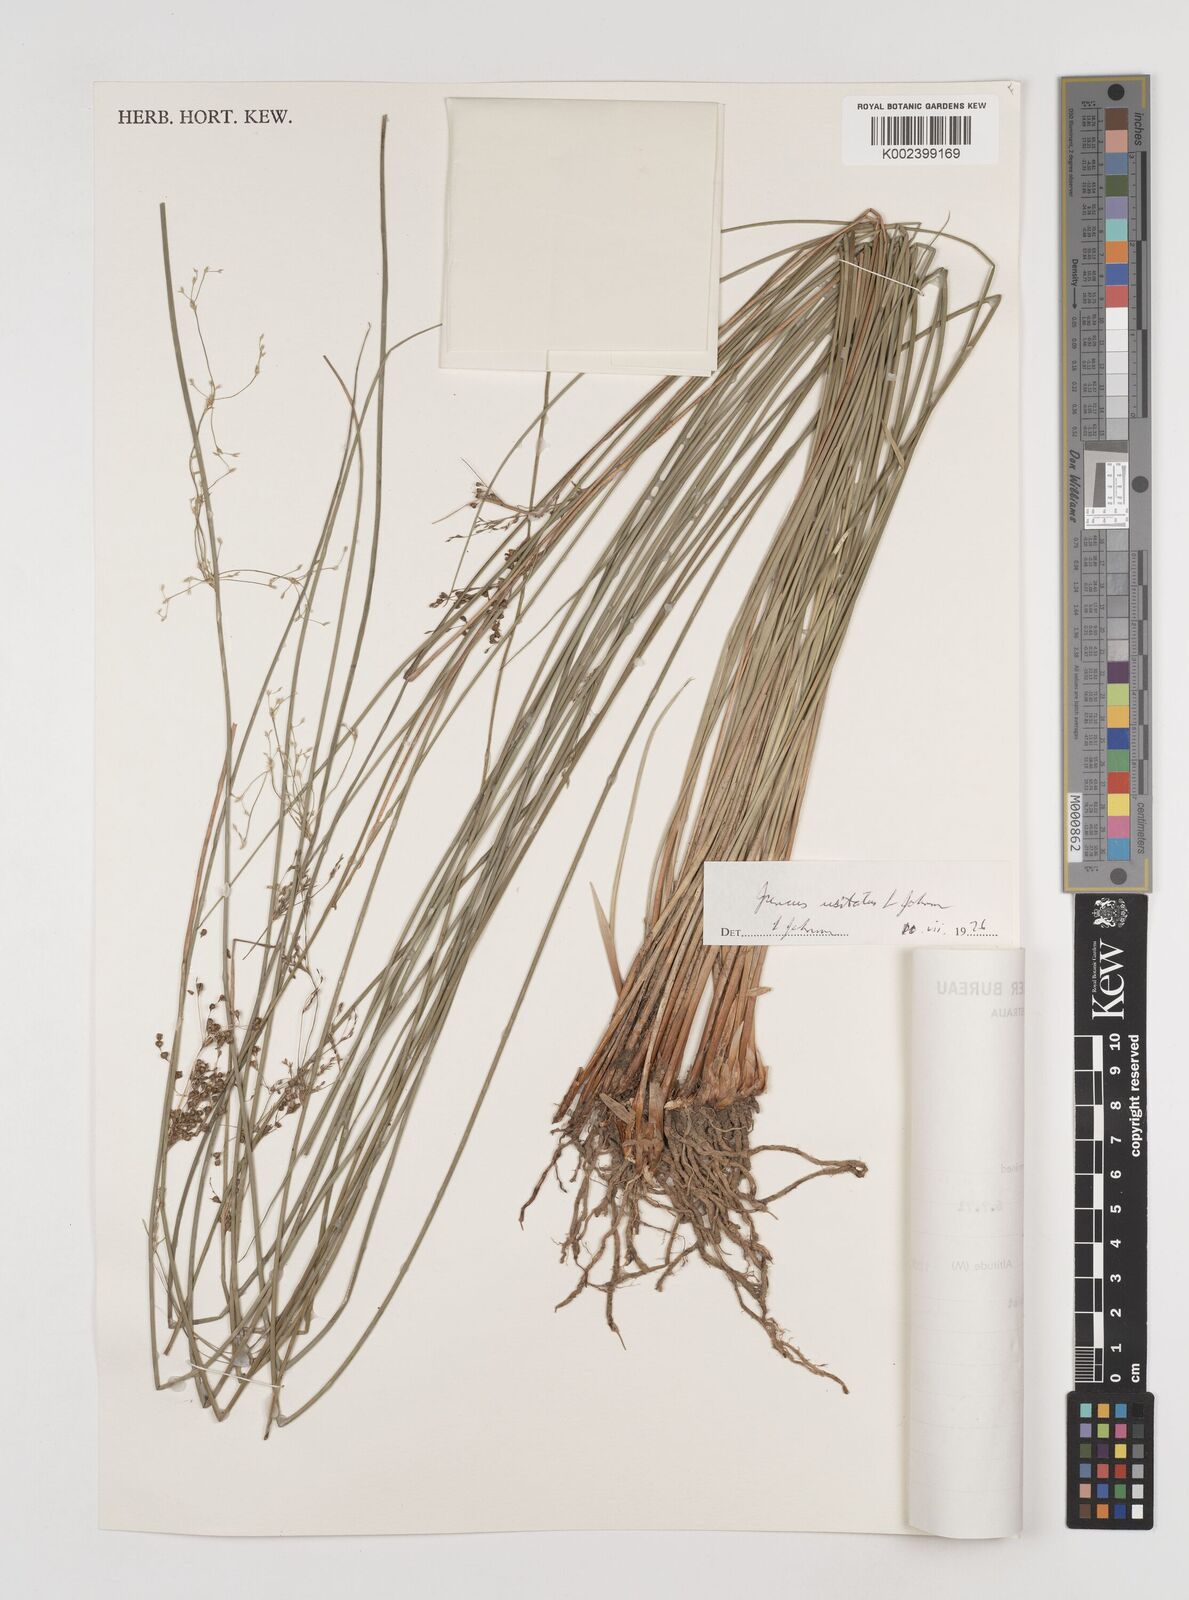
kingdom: Plantae
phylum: Tracheophyta
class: Liliopsida
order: Poales
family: Juncaceae
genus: Juncus
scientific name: Juncus usitatus
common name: Rush
